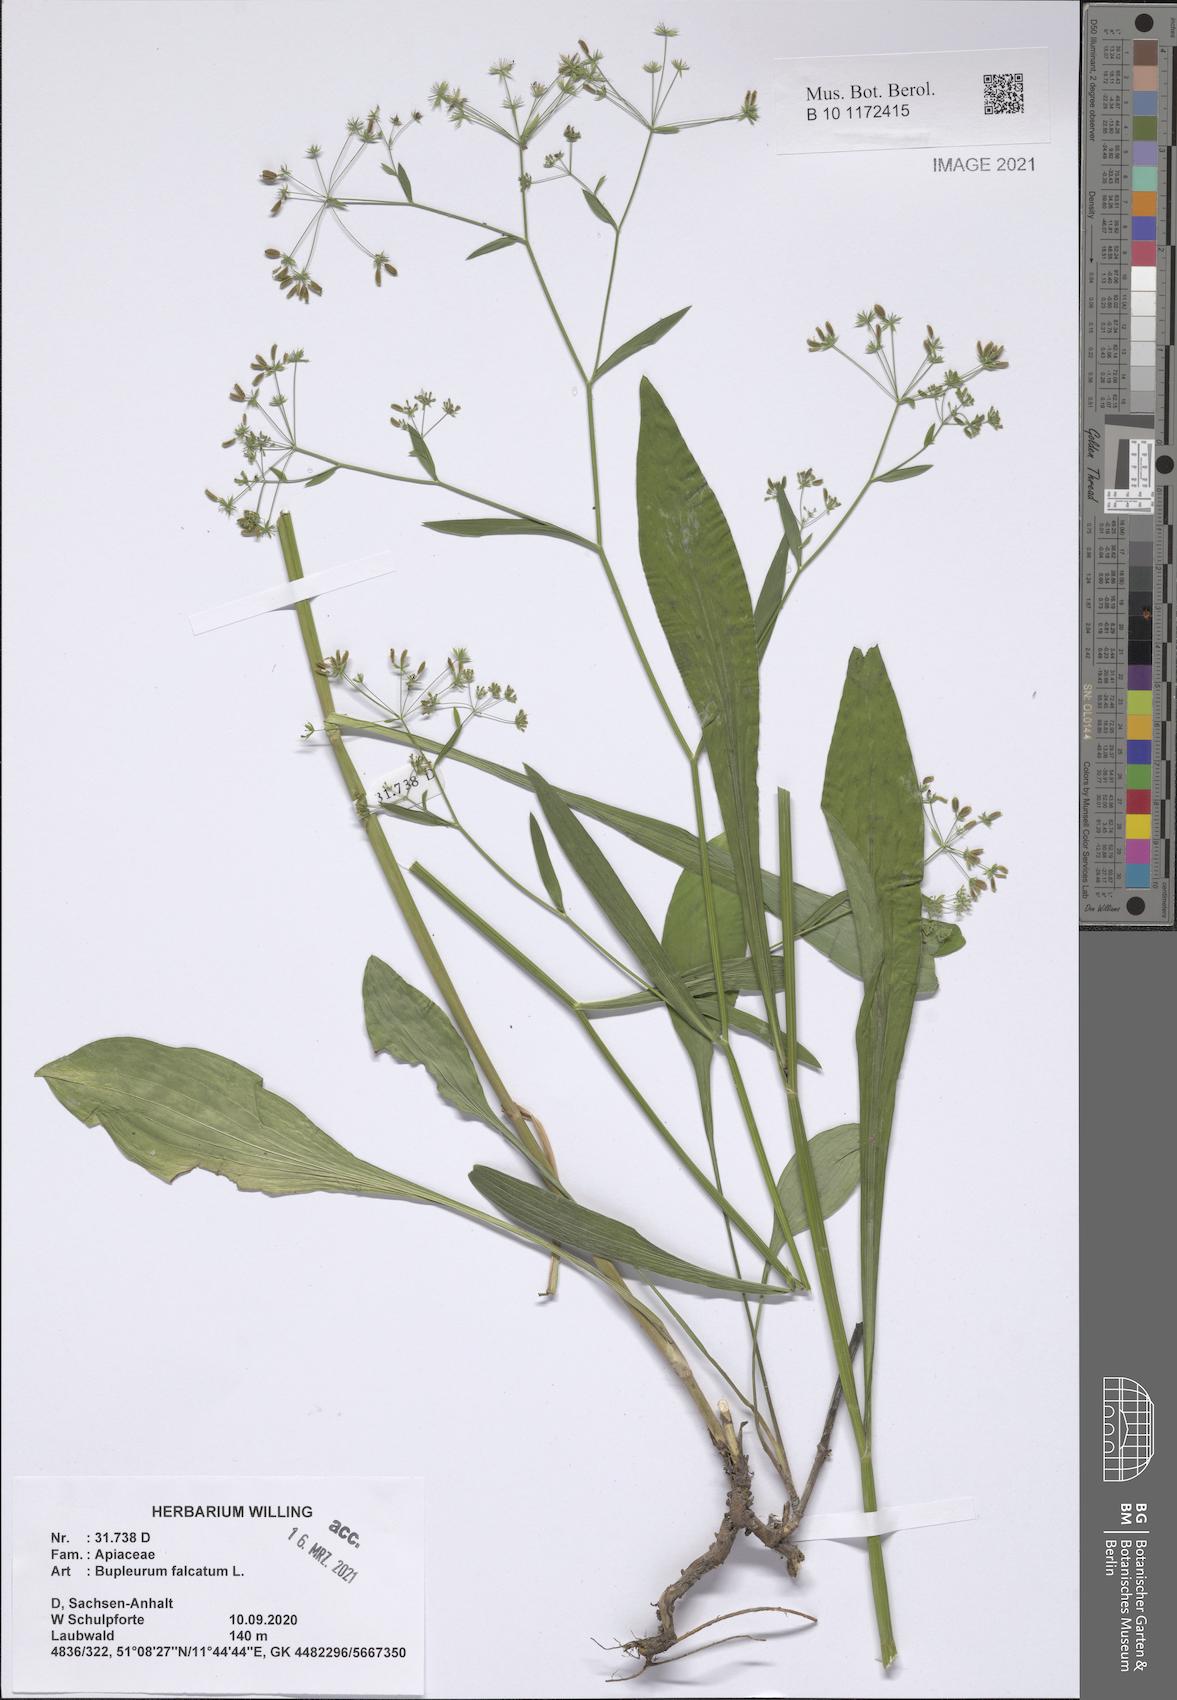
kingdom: Plantae
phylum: Tracheophyta
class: Magnoliopsida
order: Apiales
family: Apiaceae
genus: Bupleurum
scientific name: Bupleurum falcatum
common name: Sickle-leaved hare's-ear
